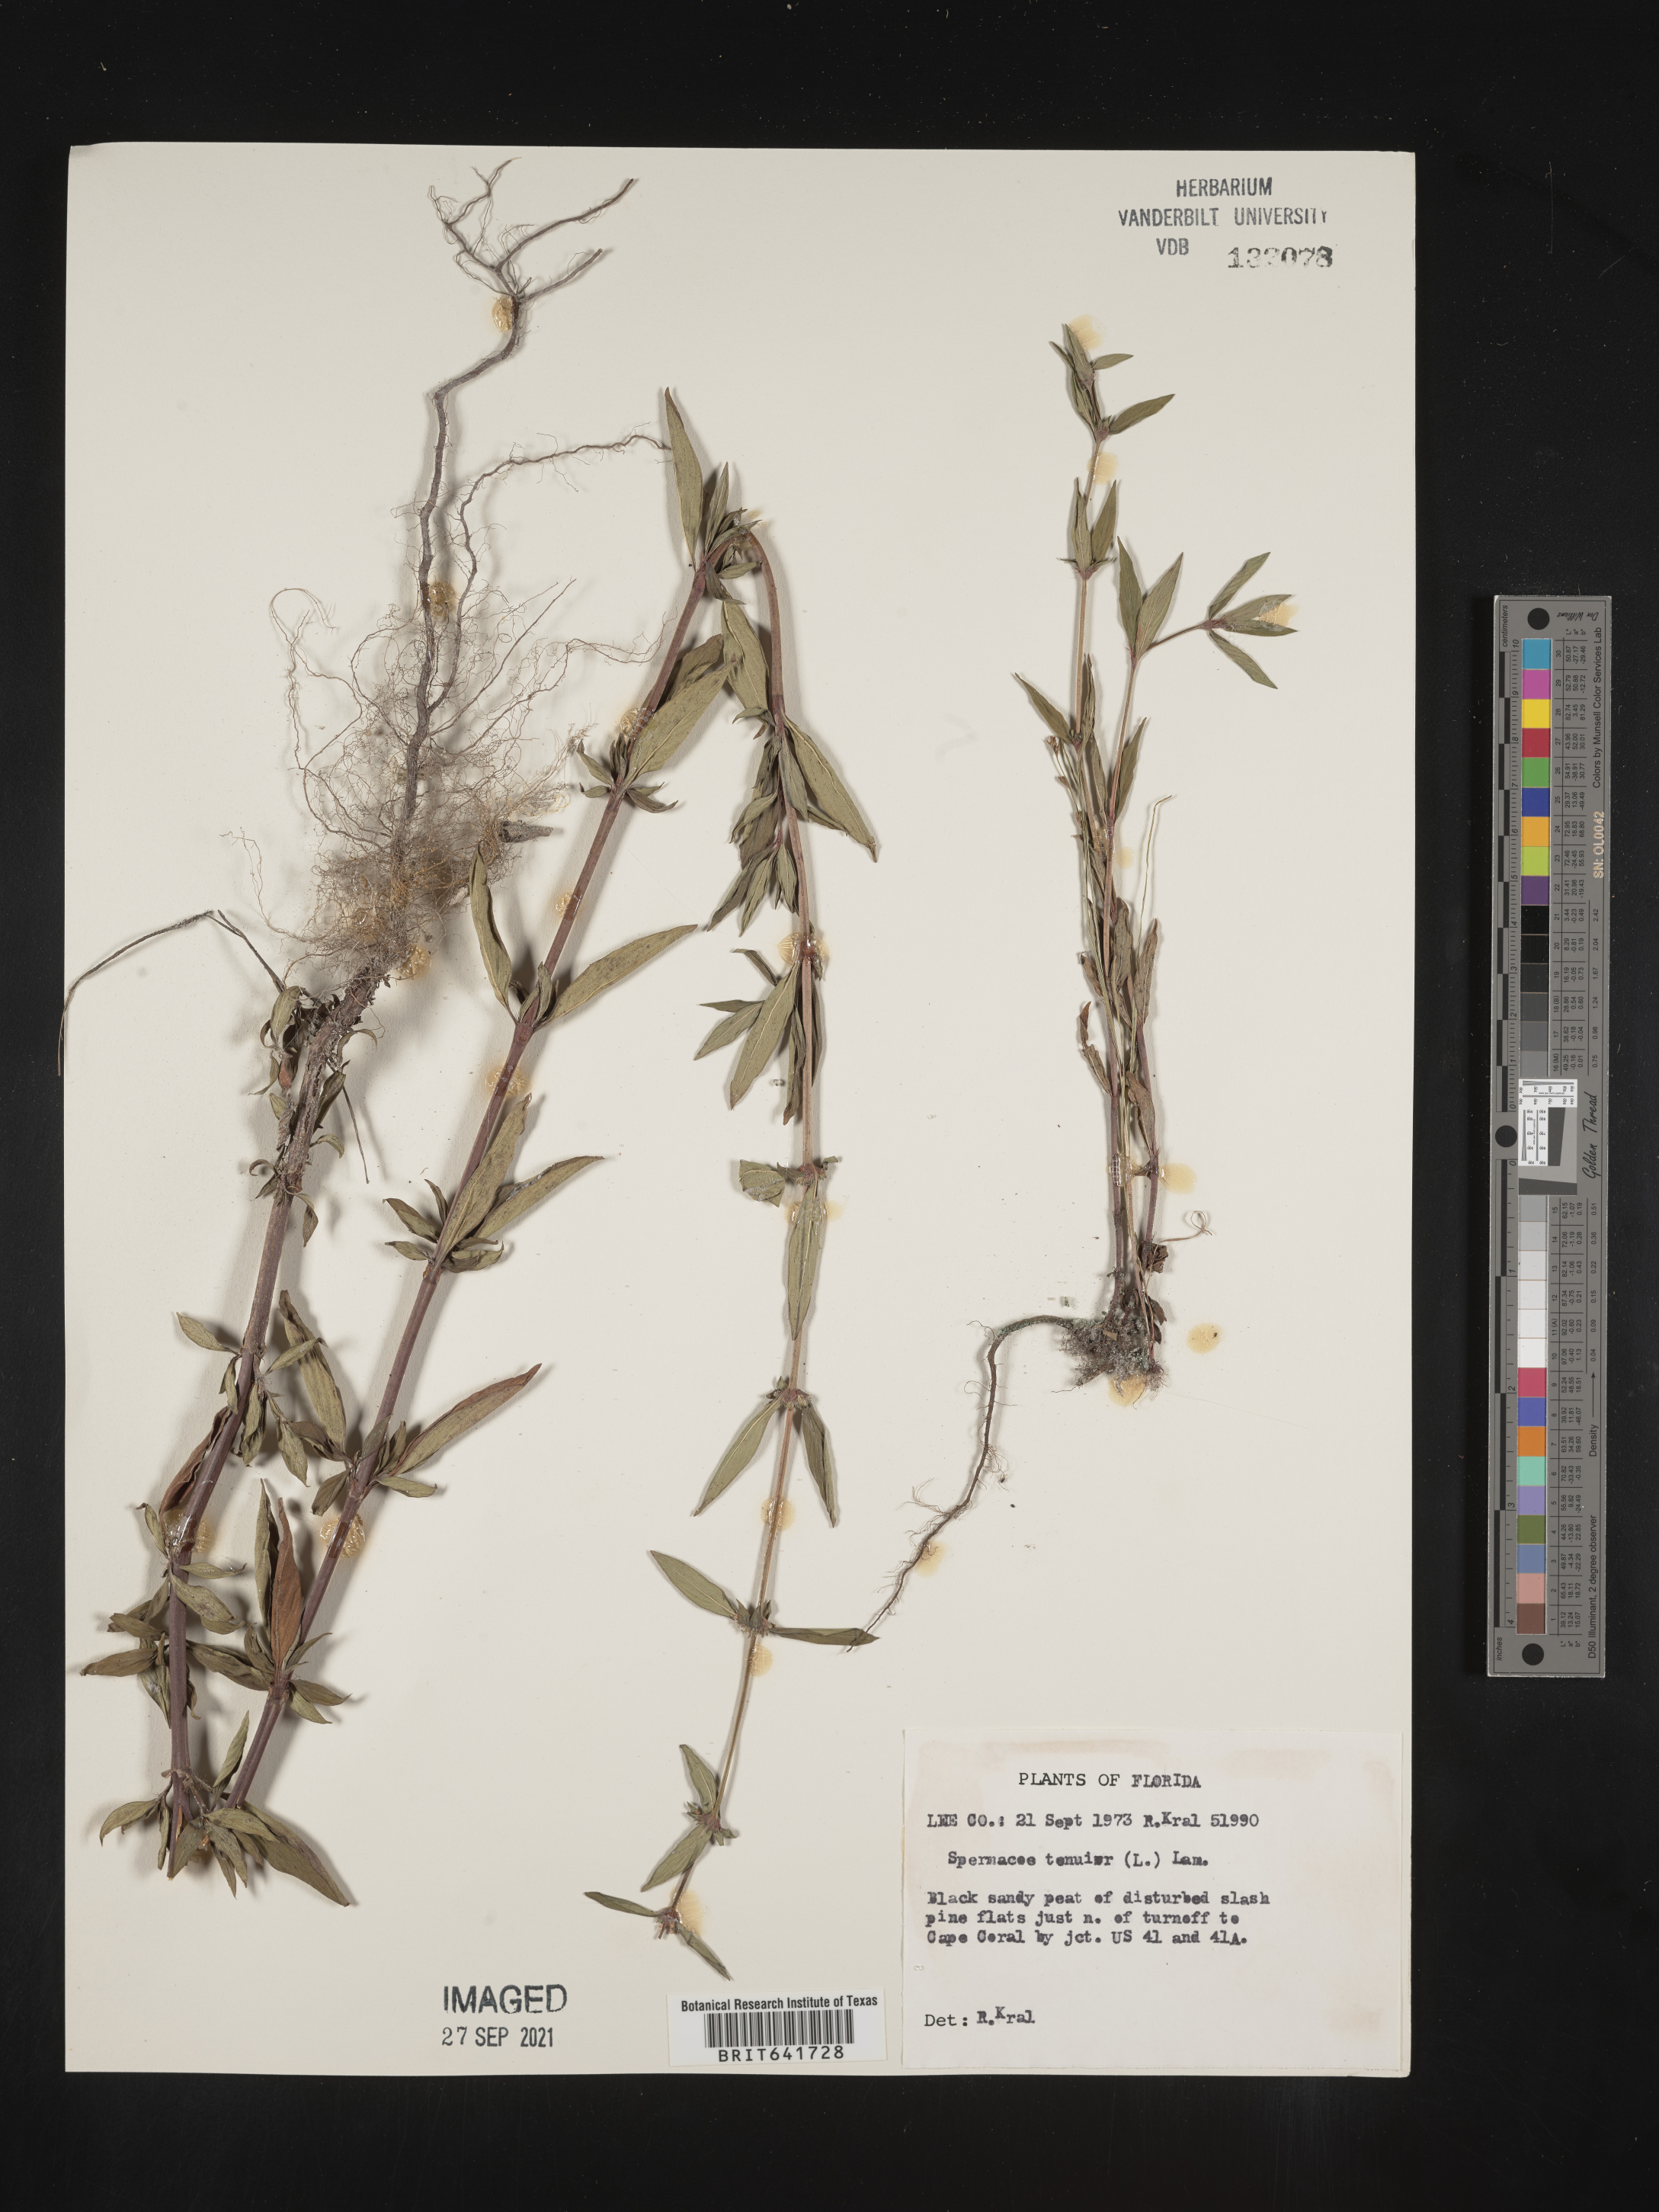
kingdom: Plantae
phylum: Tracheophyta
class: Magnoliopsida
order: Gentianales
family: Rubiaceae
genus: Spermacoce
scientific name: Spermacoce tenuior
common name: River false buttonweed
